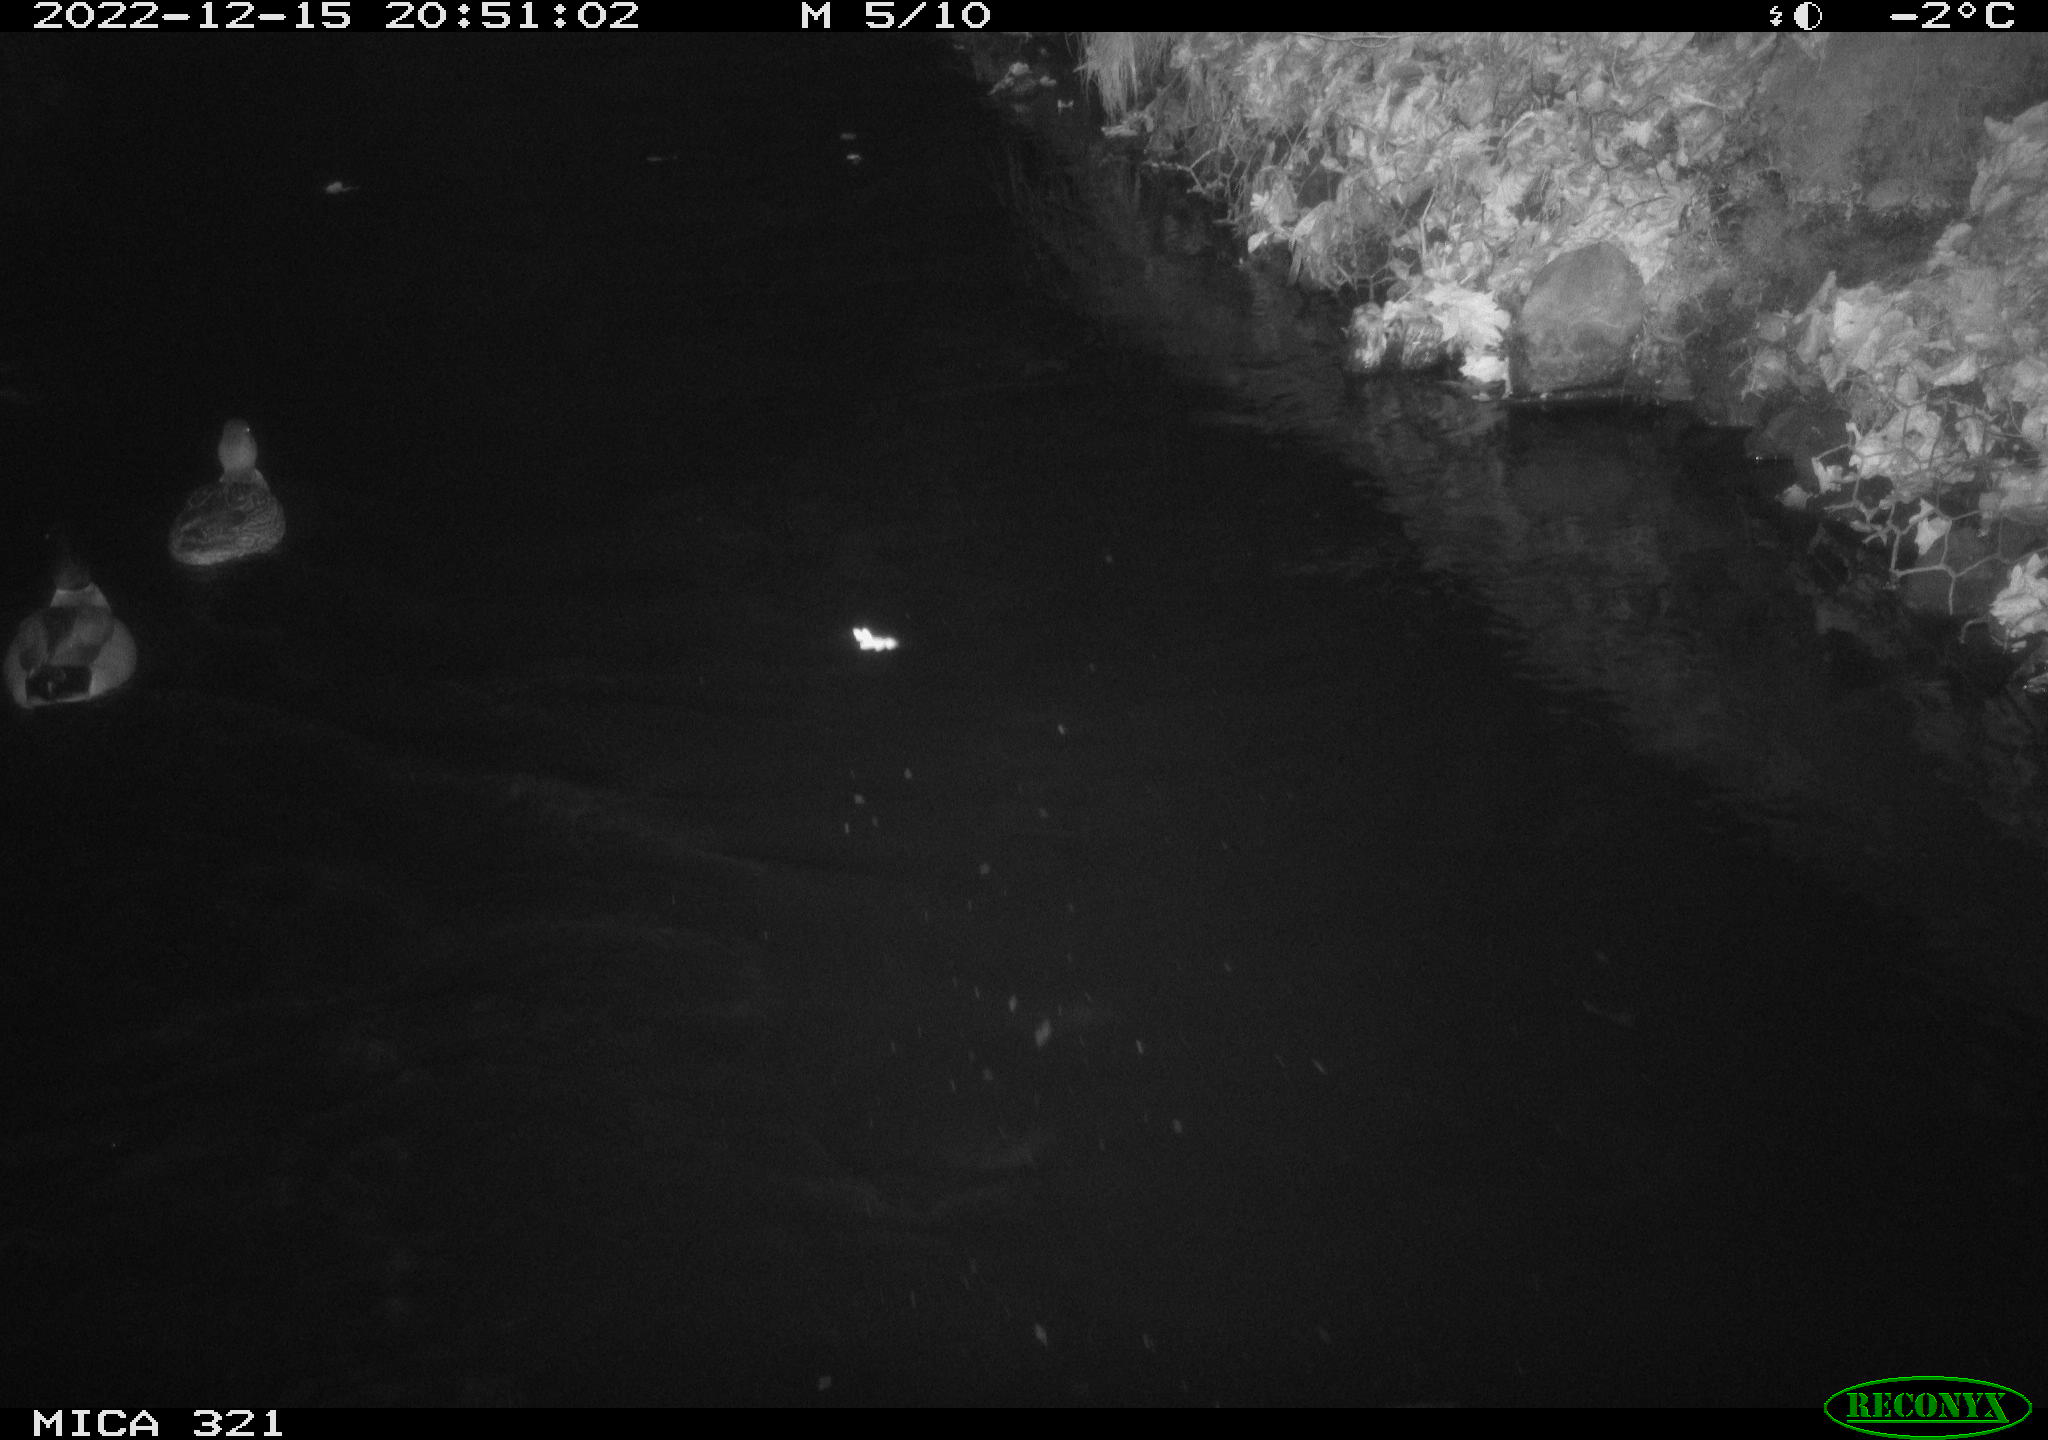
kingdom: Animalia
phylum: Chordata
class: Aves
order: Anseriformes
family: Anatidae
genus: Anas
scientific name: Anas
